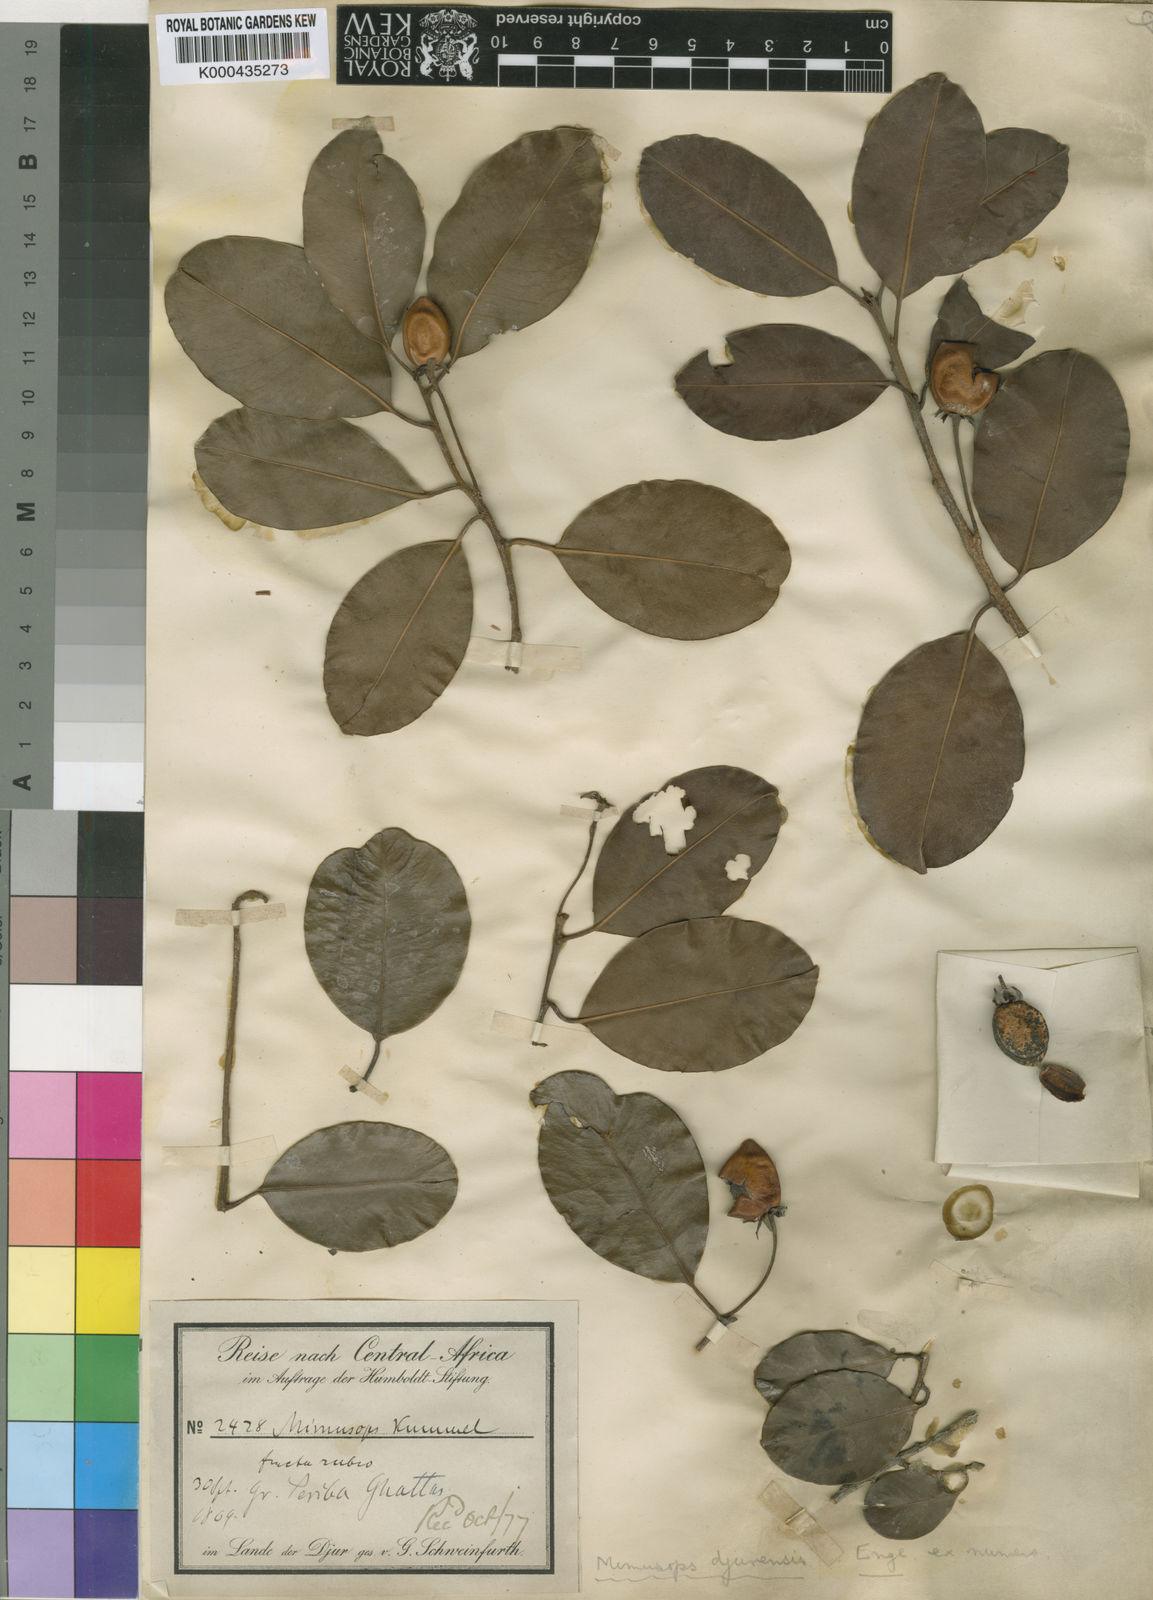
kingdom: Plantae
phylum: Tracheophyta
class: Magnoliopsida
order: Ericales
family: Sapotaceae
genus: Mimusops
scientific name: Mimusops kummel
